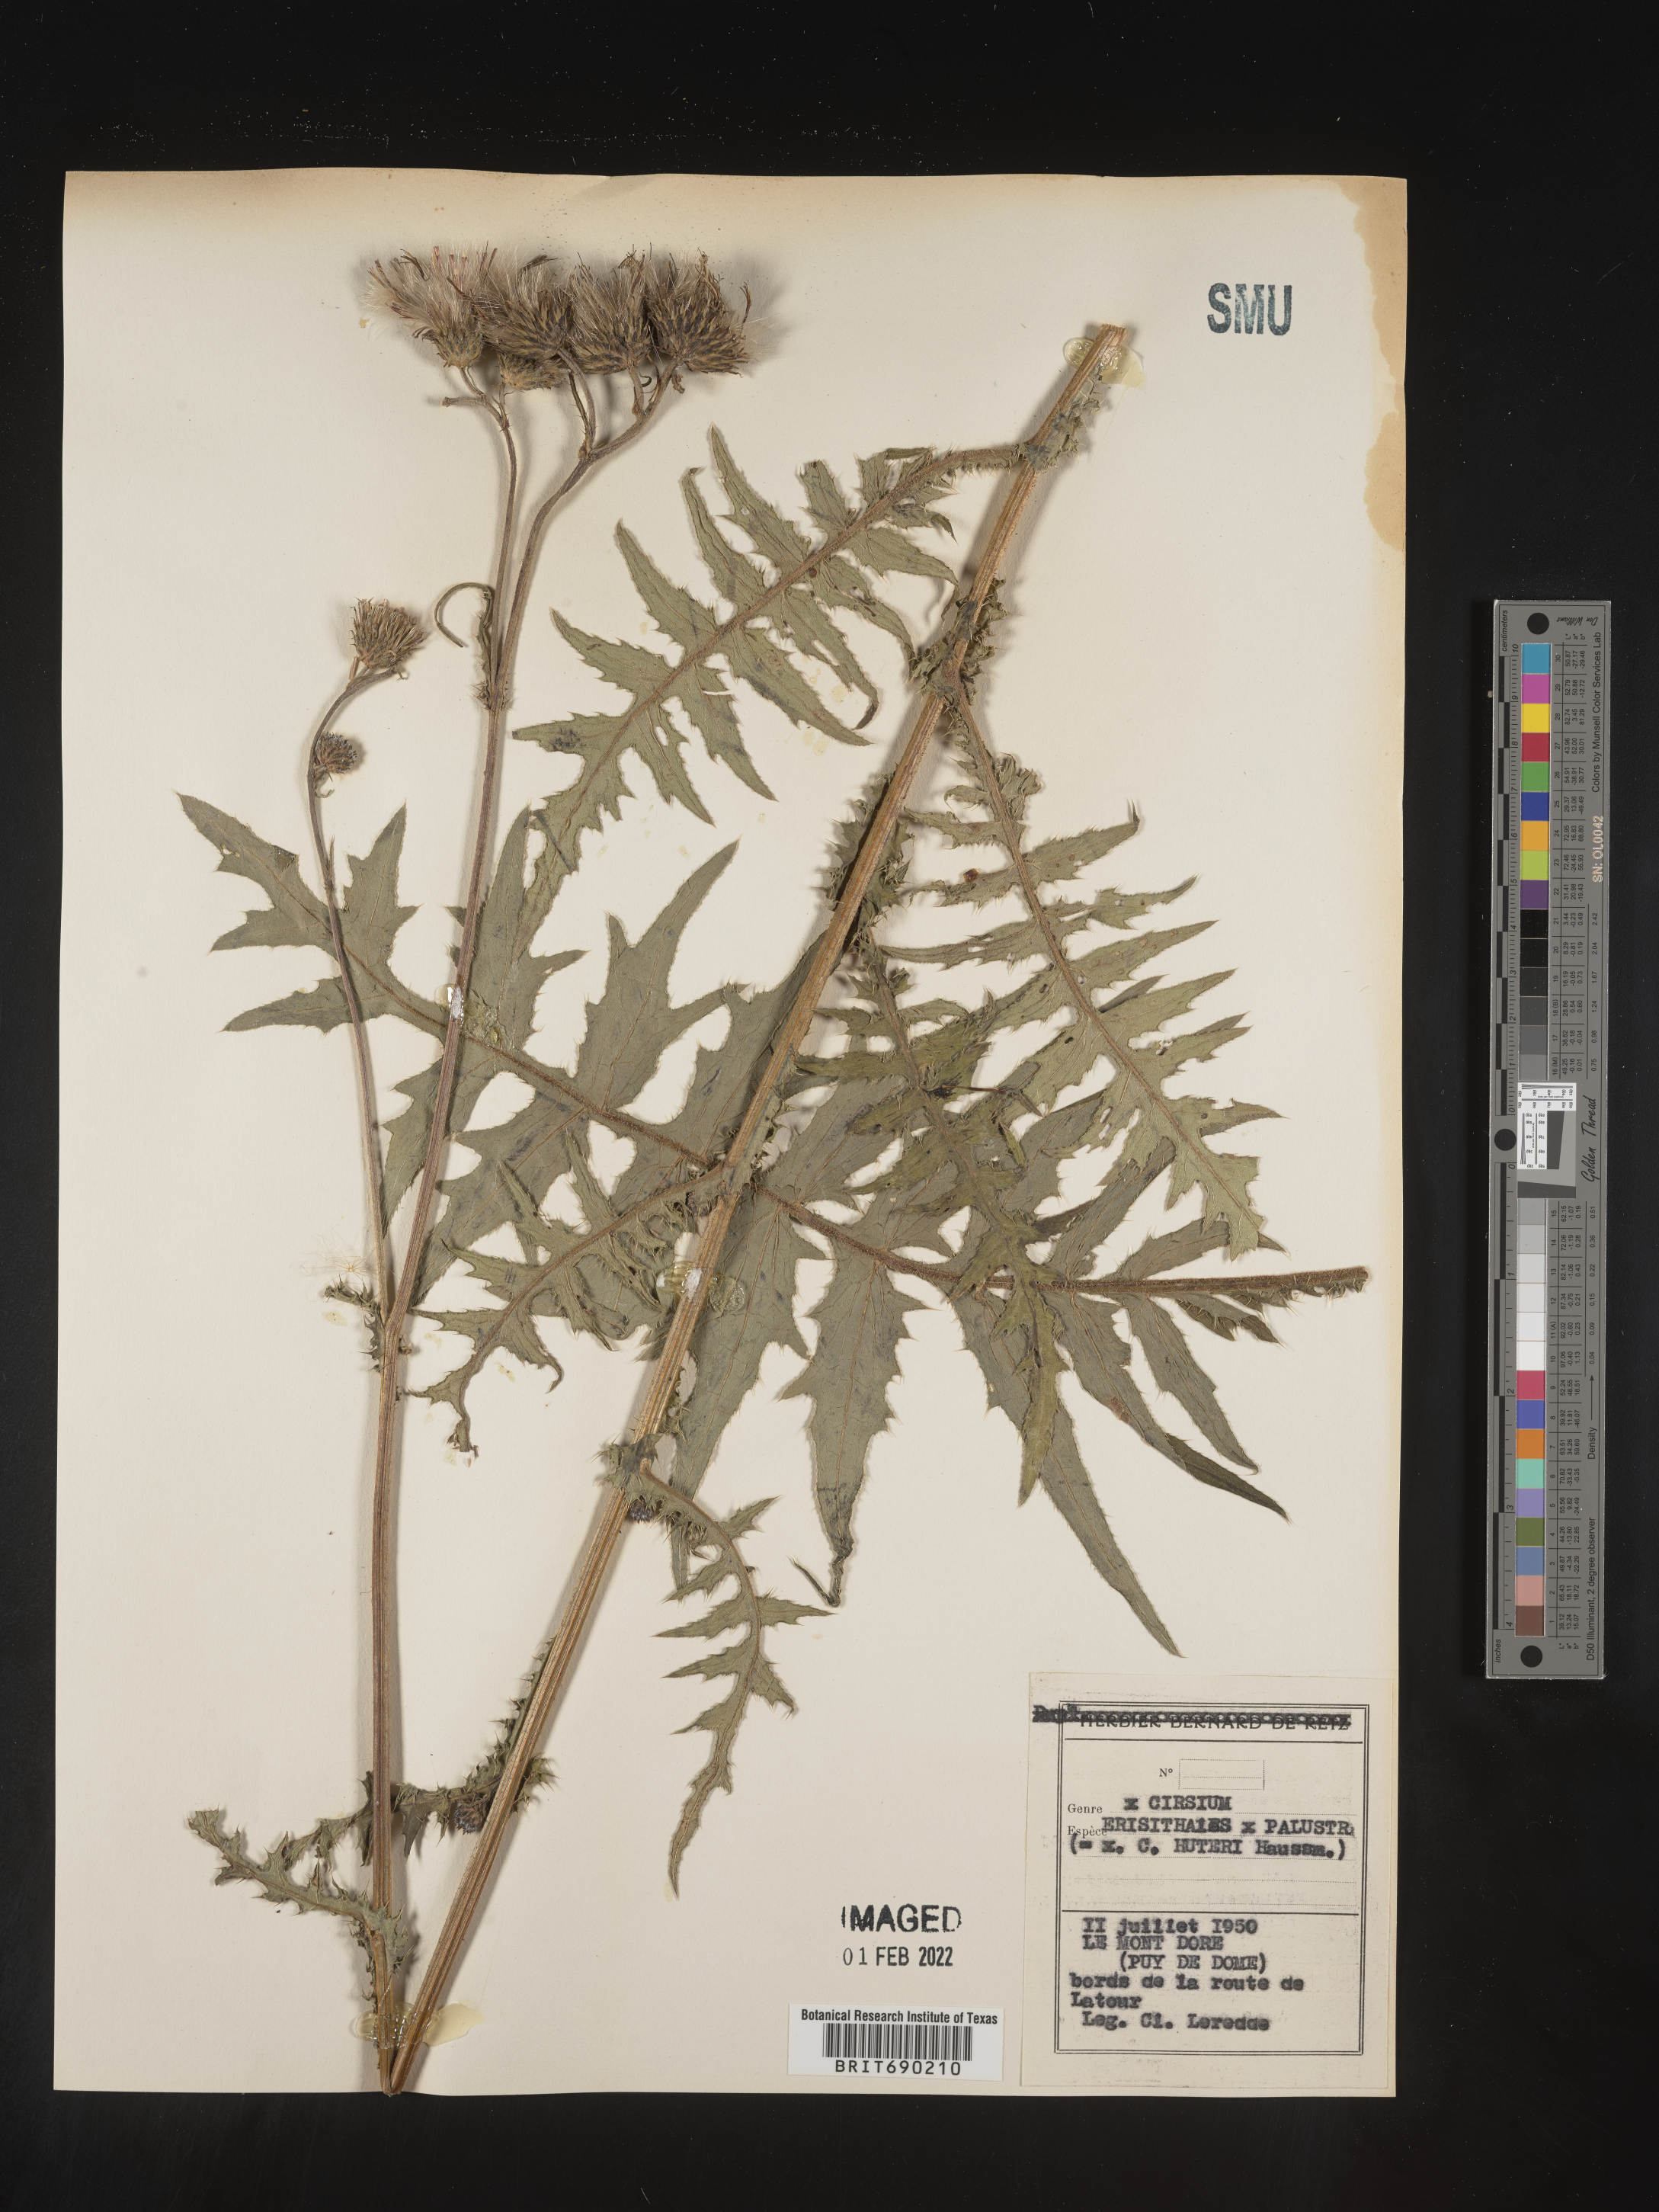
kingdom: Plantae
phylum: Tracheophyta
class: Magnoliopsida
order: Asterales
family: Asteraceae
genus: Cirsium
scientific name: Cirsium
